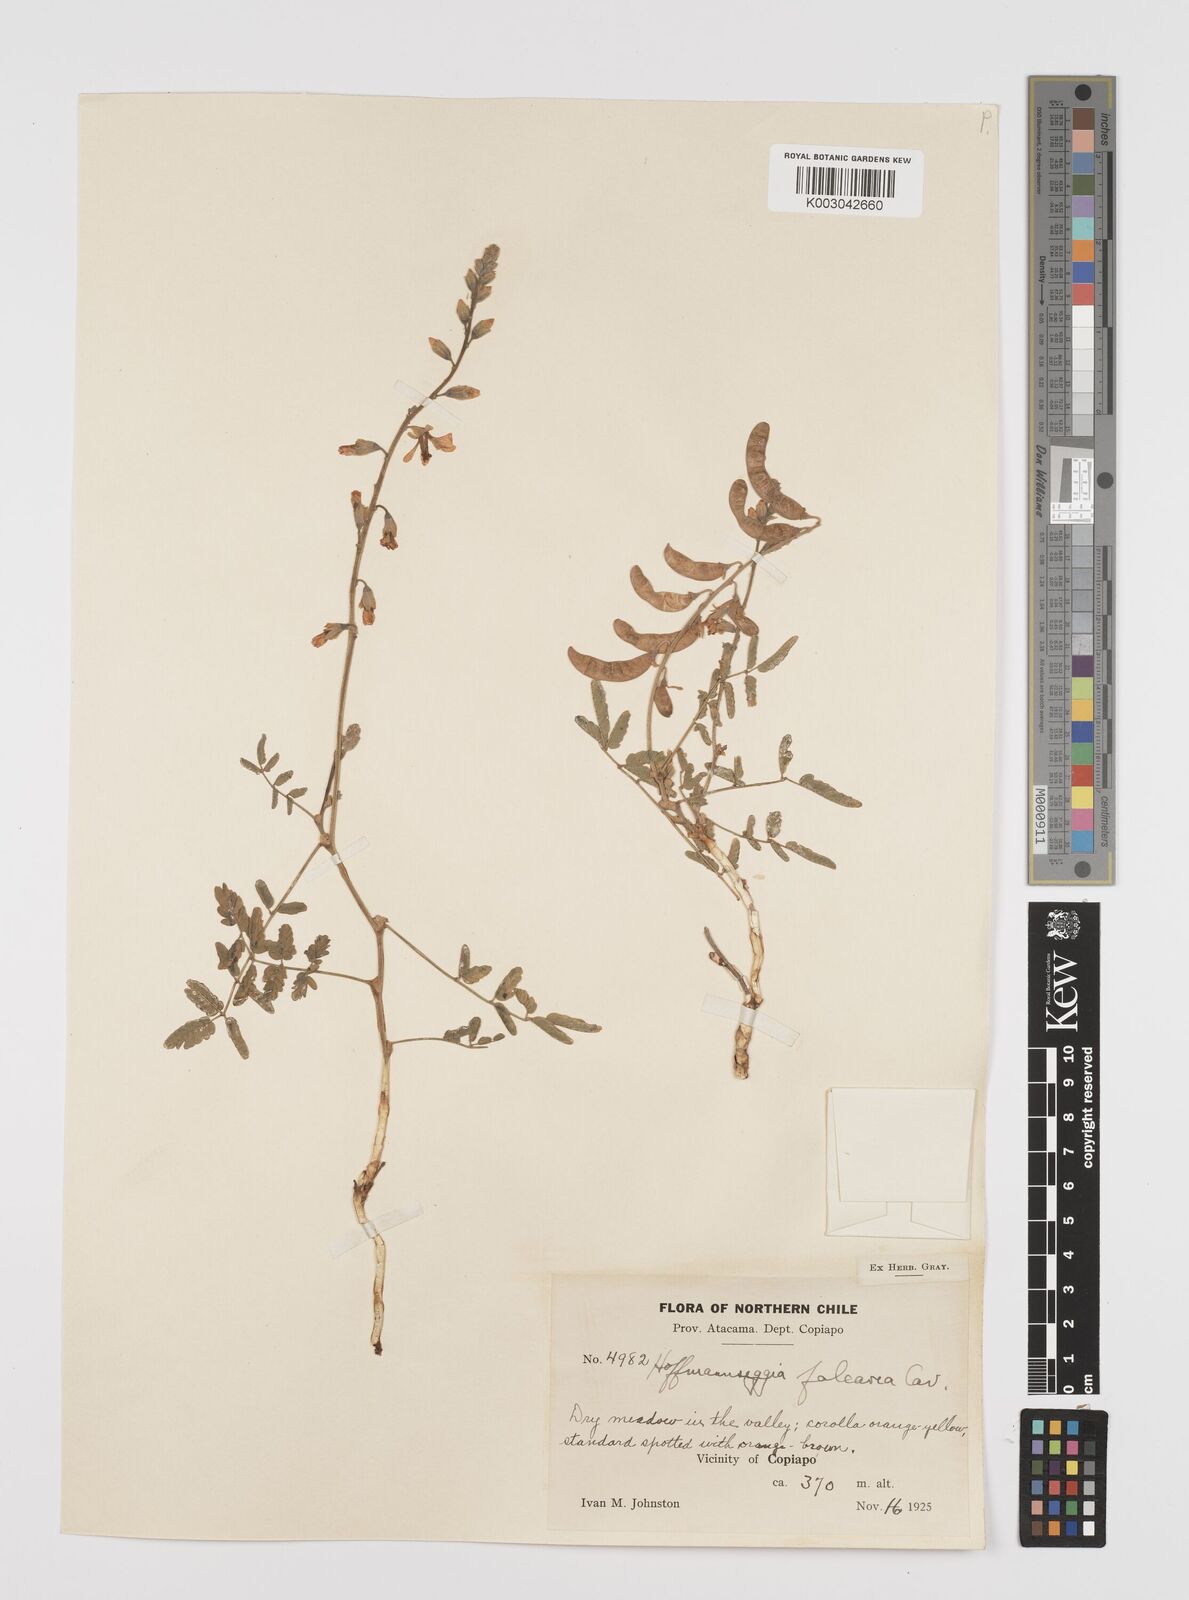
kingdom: Plantae
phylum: Tracheophyta
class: Magnoliopsida
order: Fabales
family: Fabaceae
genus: Hoffmannseggia
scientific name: Hoffmannseggia glauca
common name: Pignut
